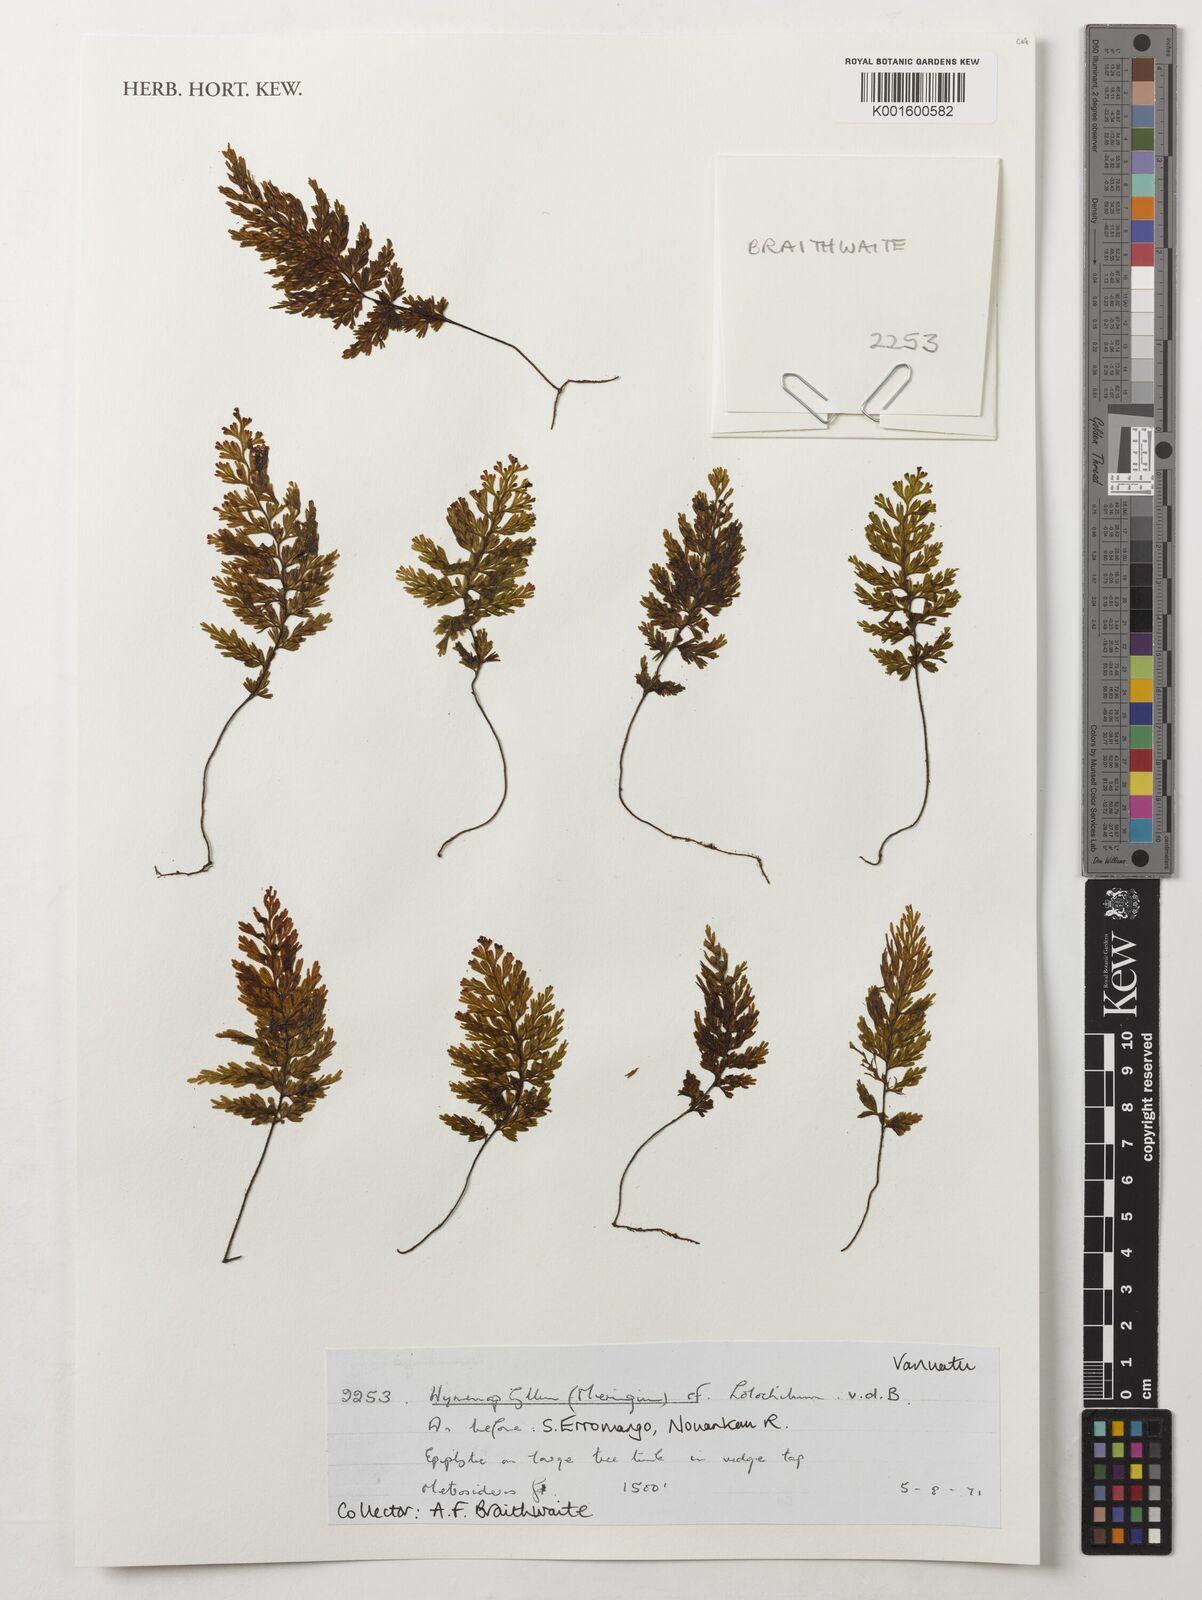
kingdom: Plantae
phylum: Tracheophyta
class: Polypodiopsida
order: Hymenophyllales
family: Hymenophyllaceae
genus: Hymenophyllum
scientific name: Hymenophyllum holochilum
